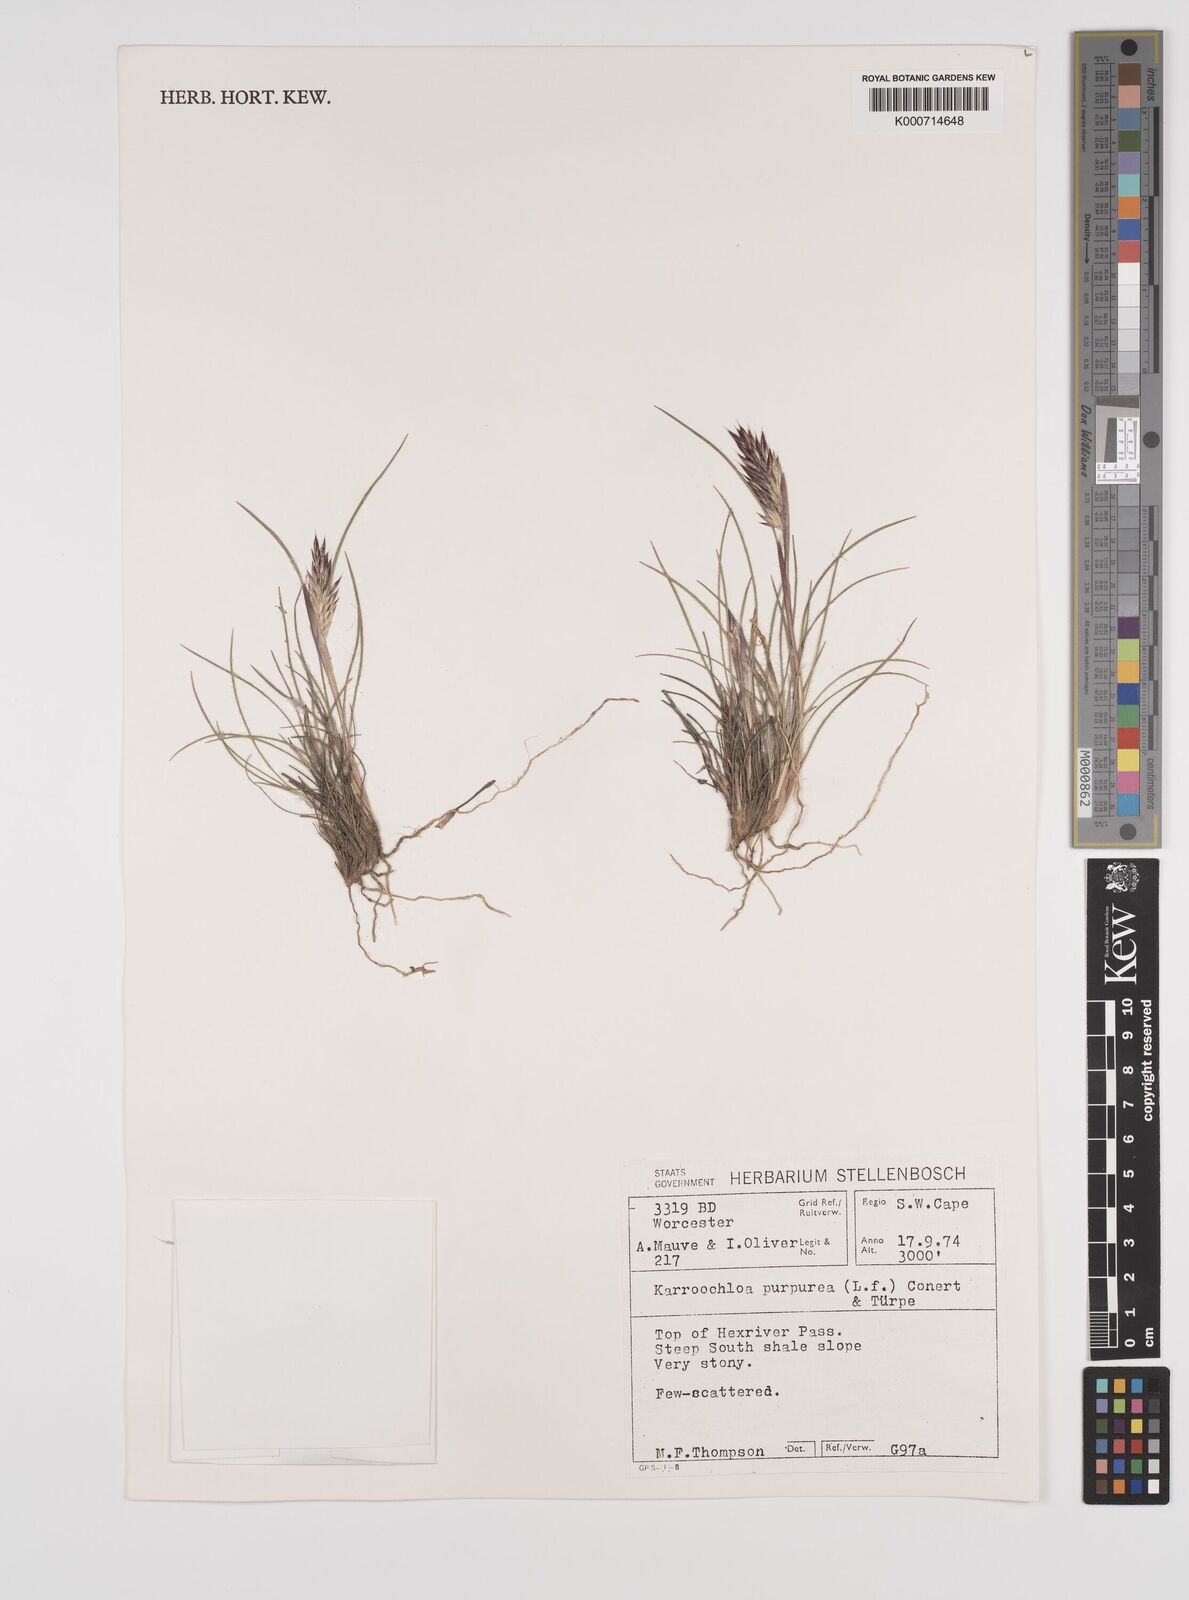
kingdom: Plantae
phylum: Tracheophyta
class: Liliopsida
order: Poales
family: Poaceae
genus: Rytidosperma
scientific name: Rytidosperma
